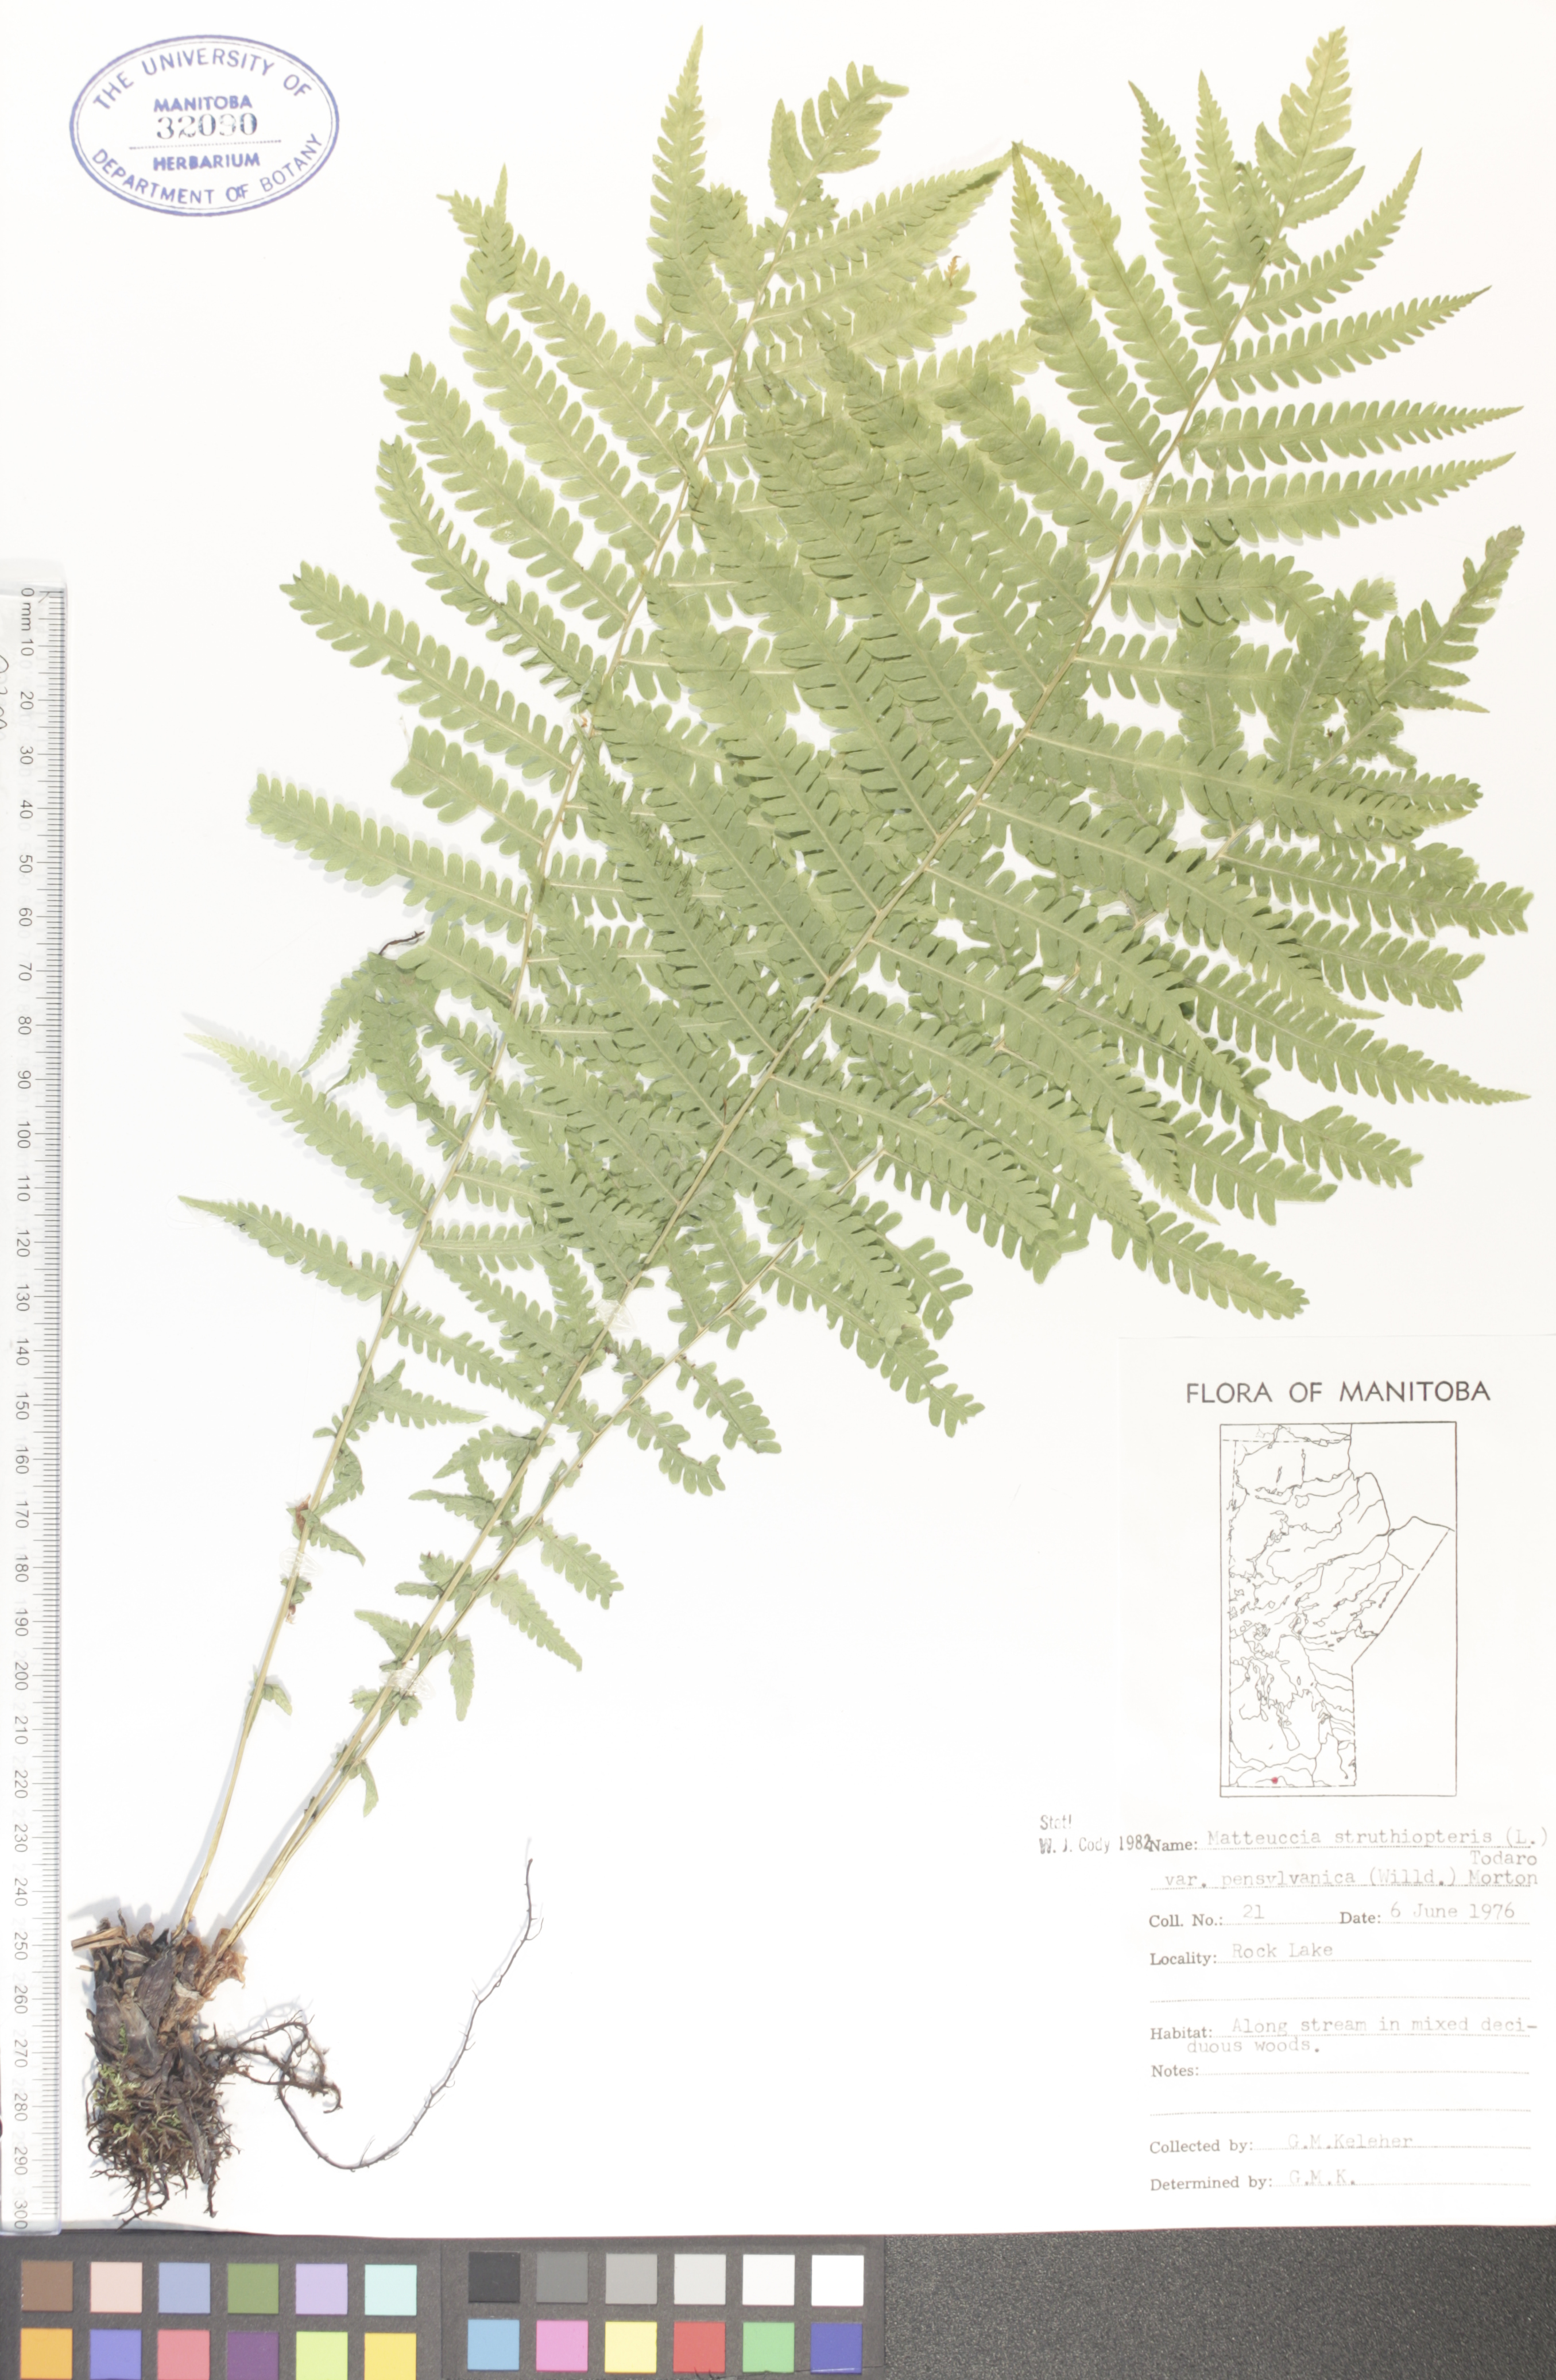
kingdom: Plantae
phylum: Tracheophyta
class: Polypodiopsida
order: Polypodiales
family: Onocleaceae
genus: Matteuccia
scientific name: Matteuccia pensylvanica
